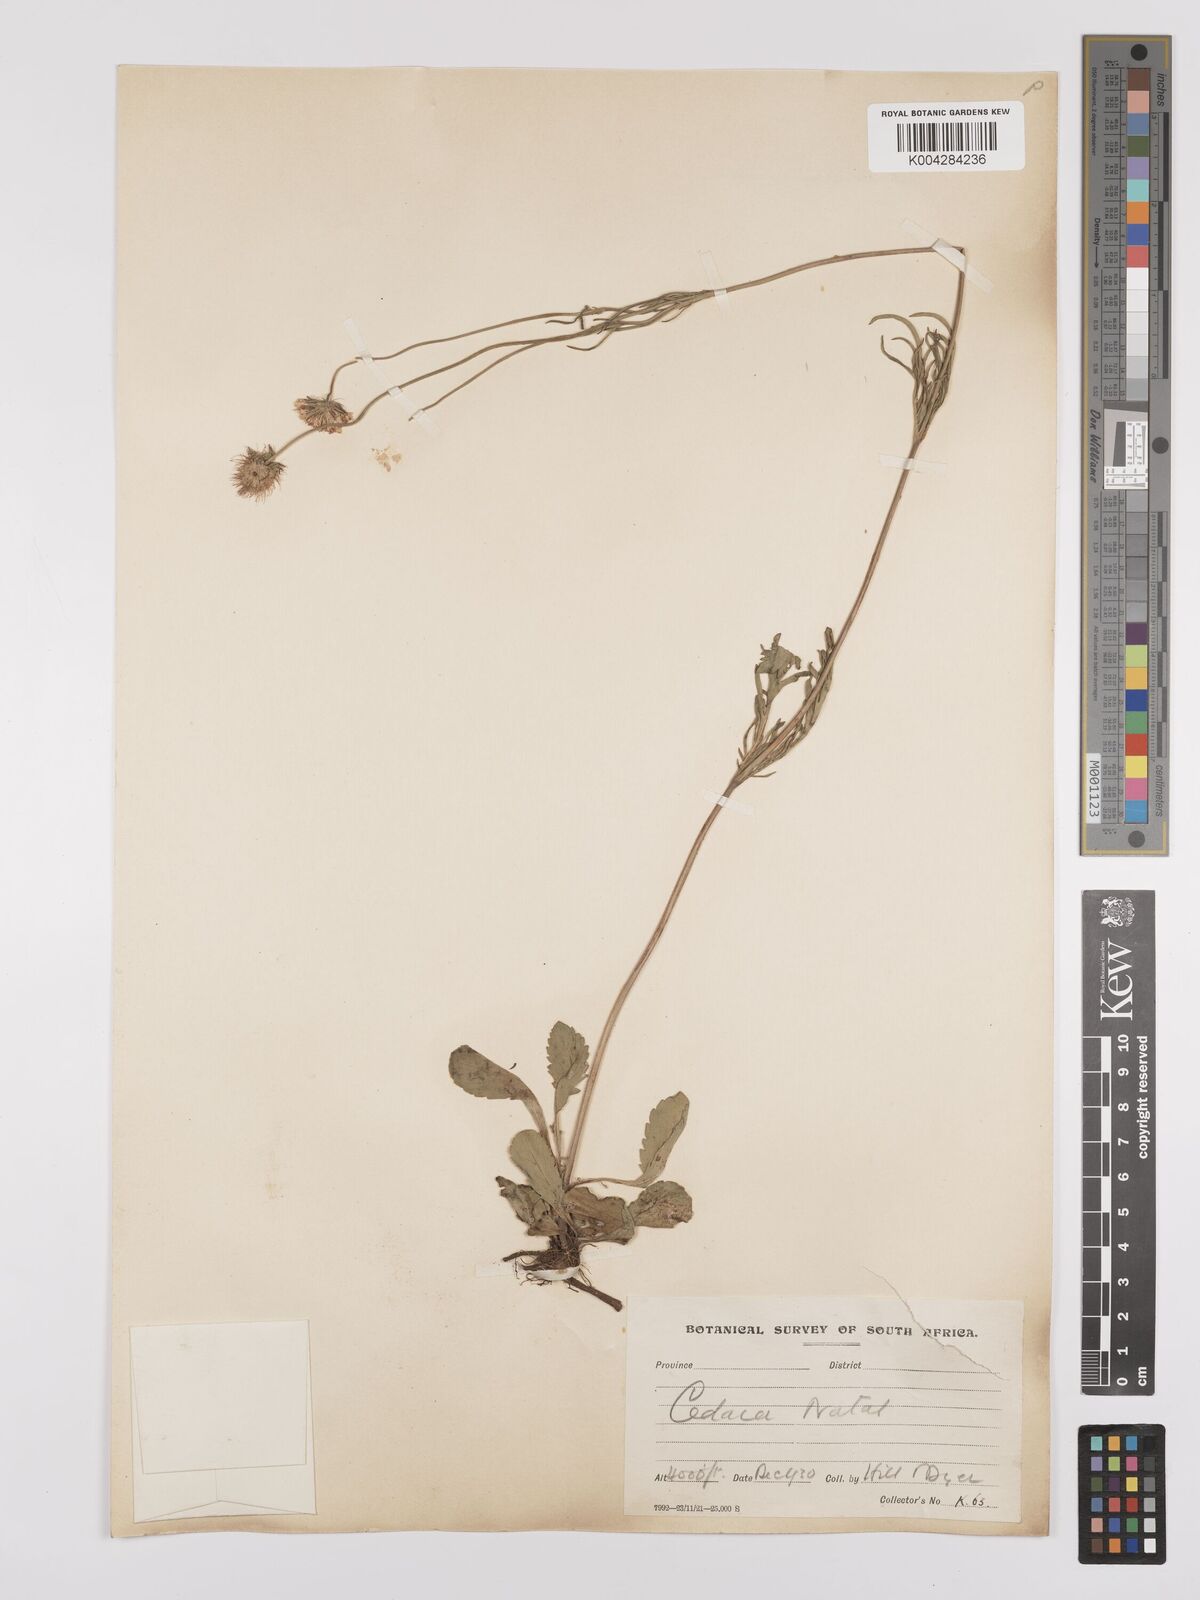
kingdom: Plantae
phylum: Tracheophyta
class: Magnoliopsida
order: Dipsacales
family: Caprifoliaceae
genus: Scabiosa
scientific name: Scabiosa columbaria
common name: Small scabious
